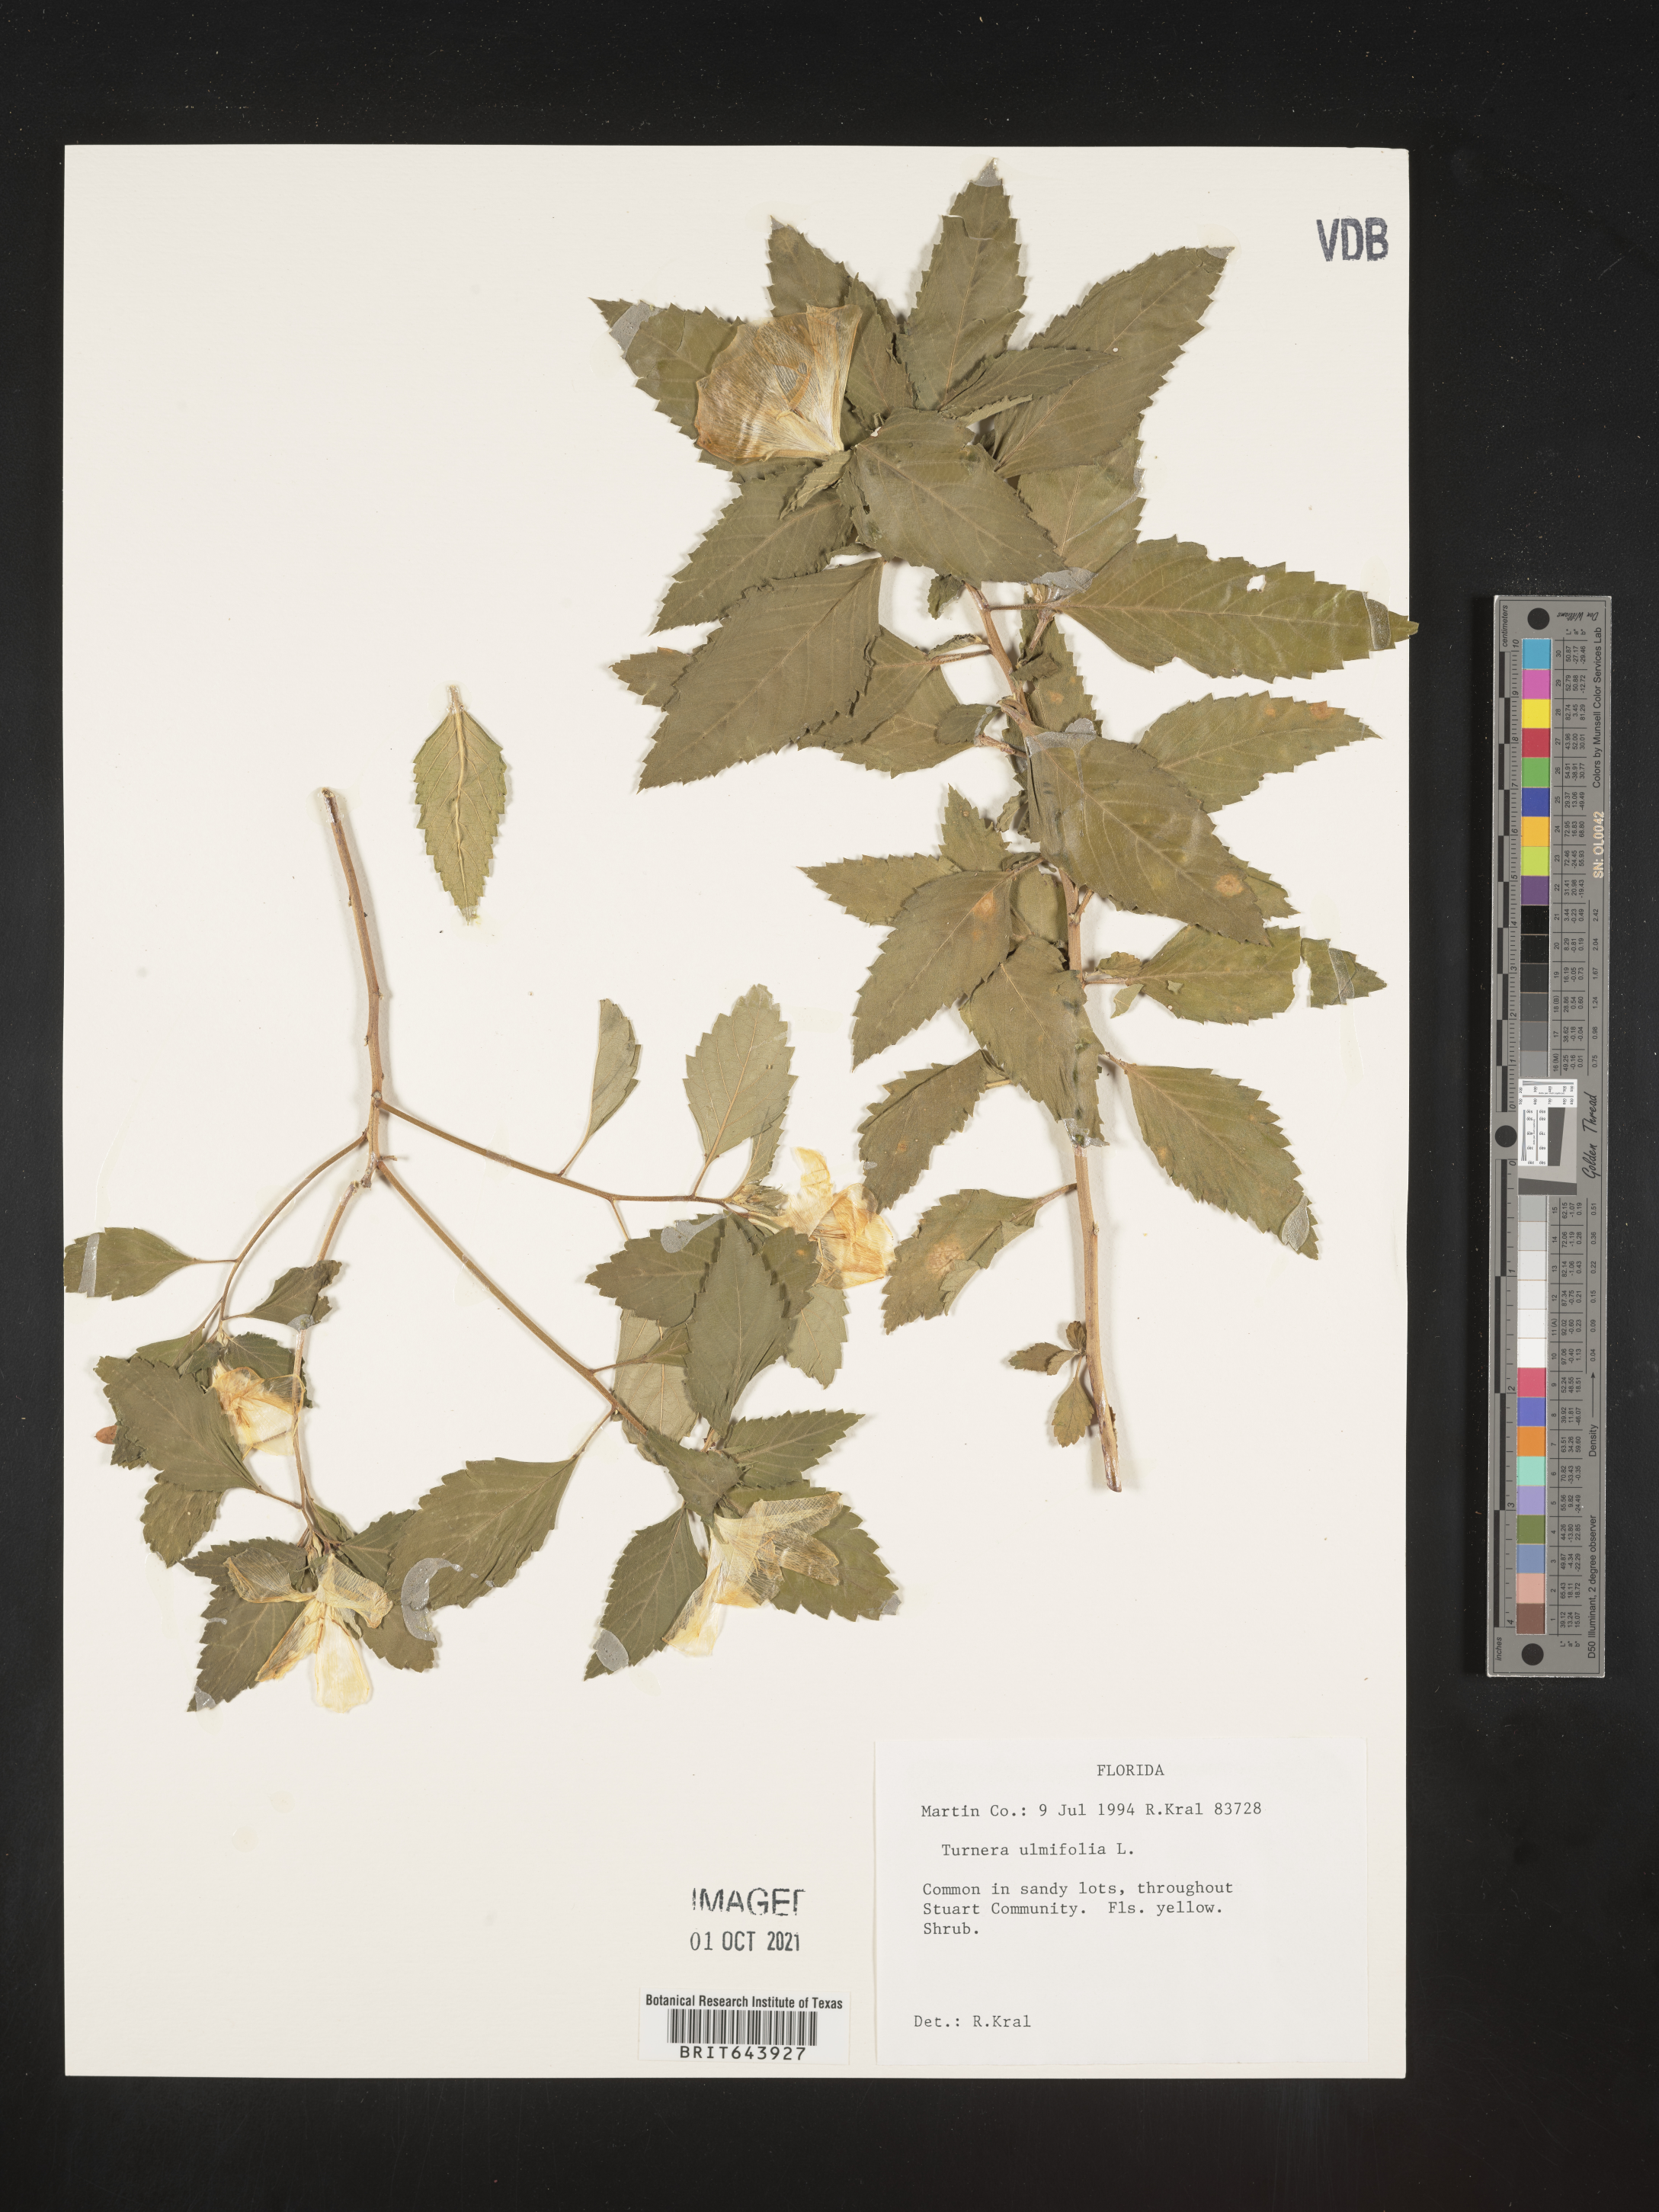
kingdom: Plantae
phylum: Tracheophyta
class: Magnoliopsida
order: Malpighiales
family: Turneraceae
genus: Turnera
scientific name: Turnera
